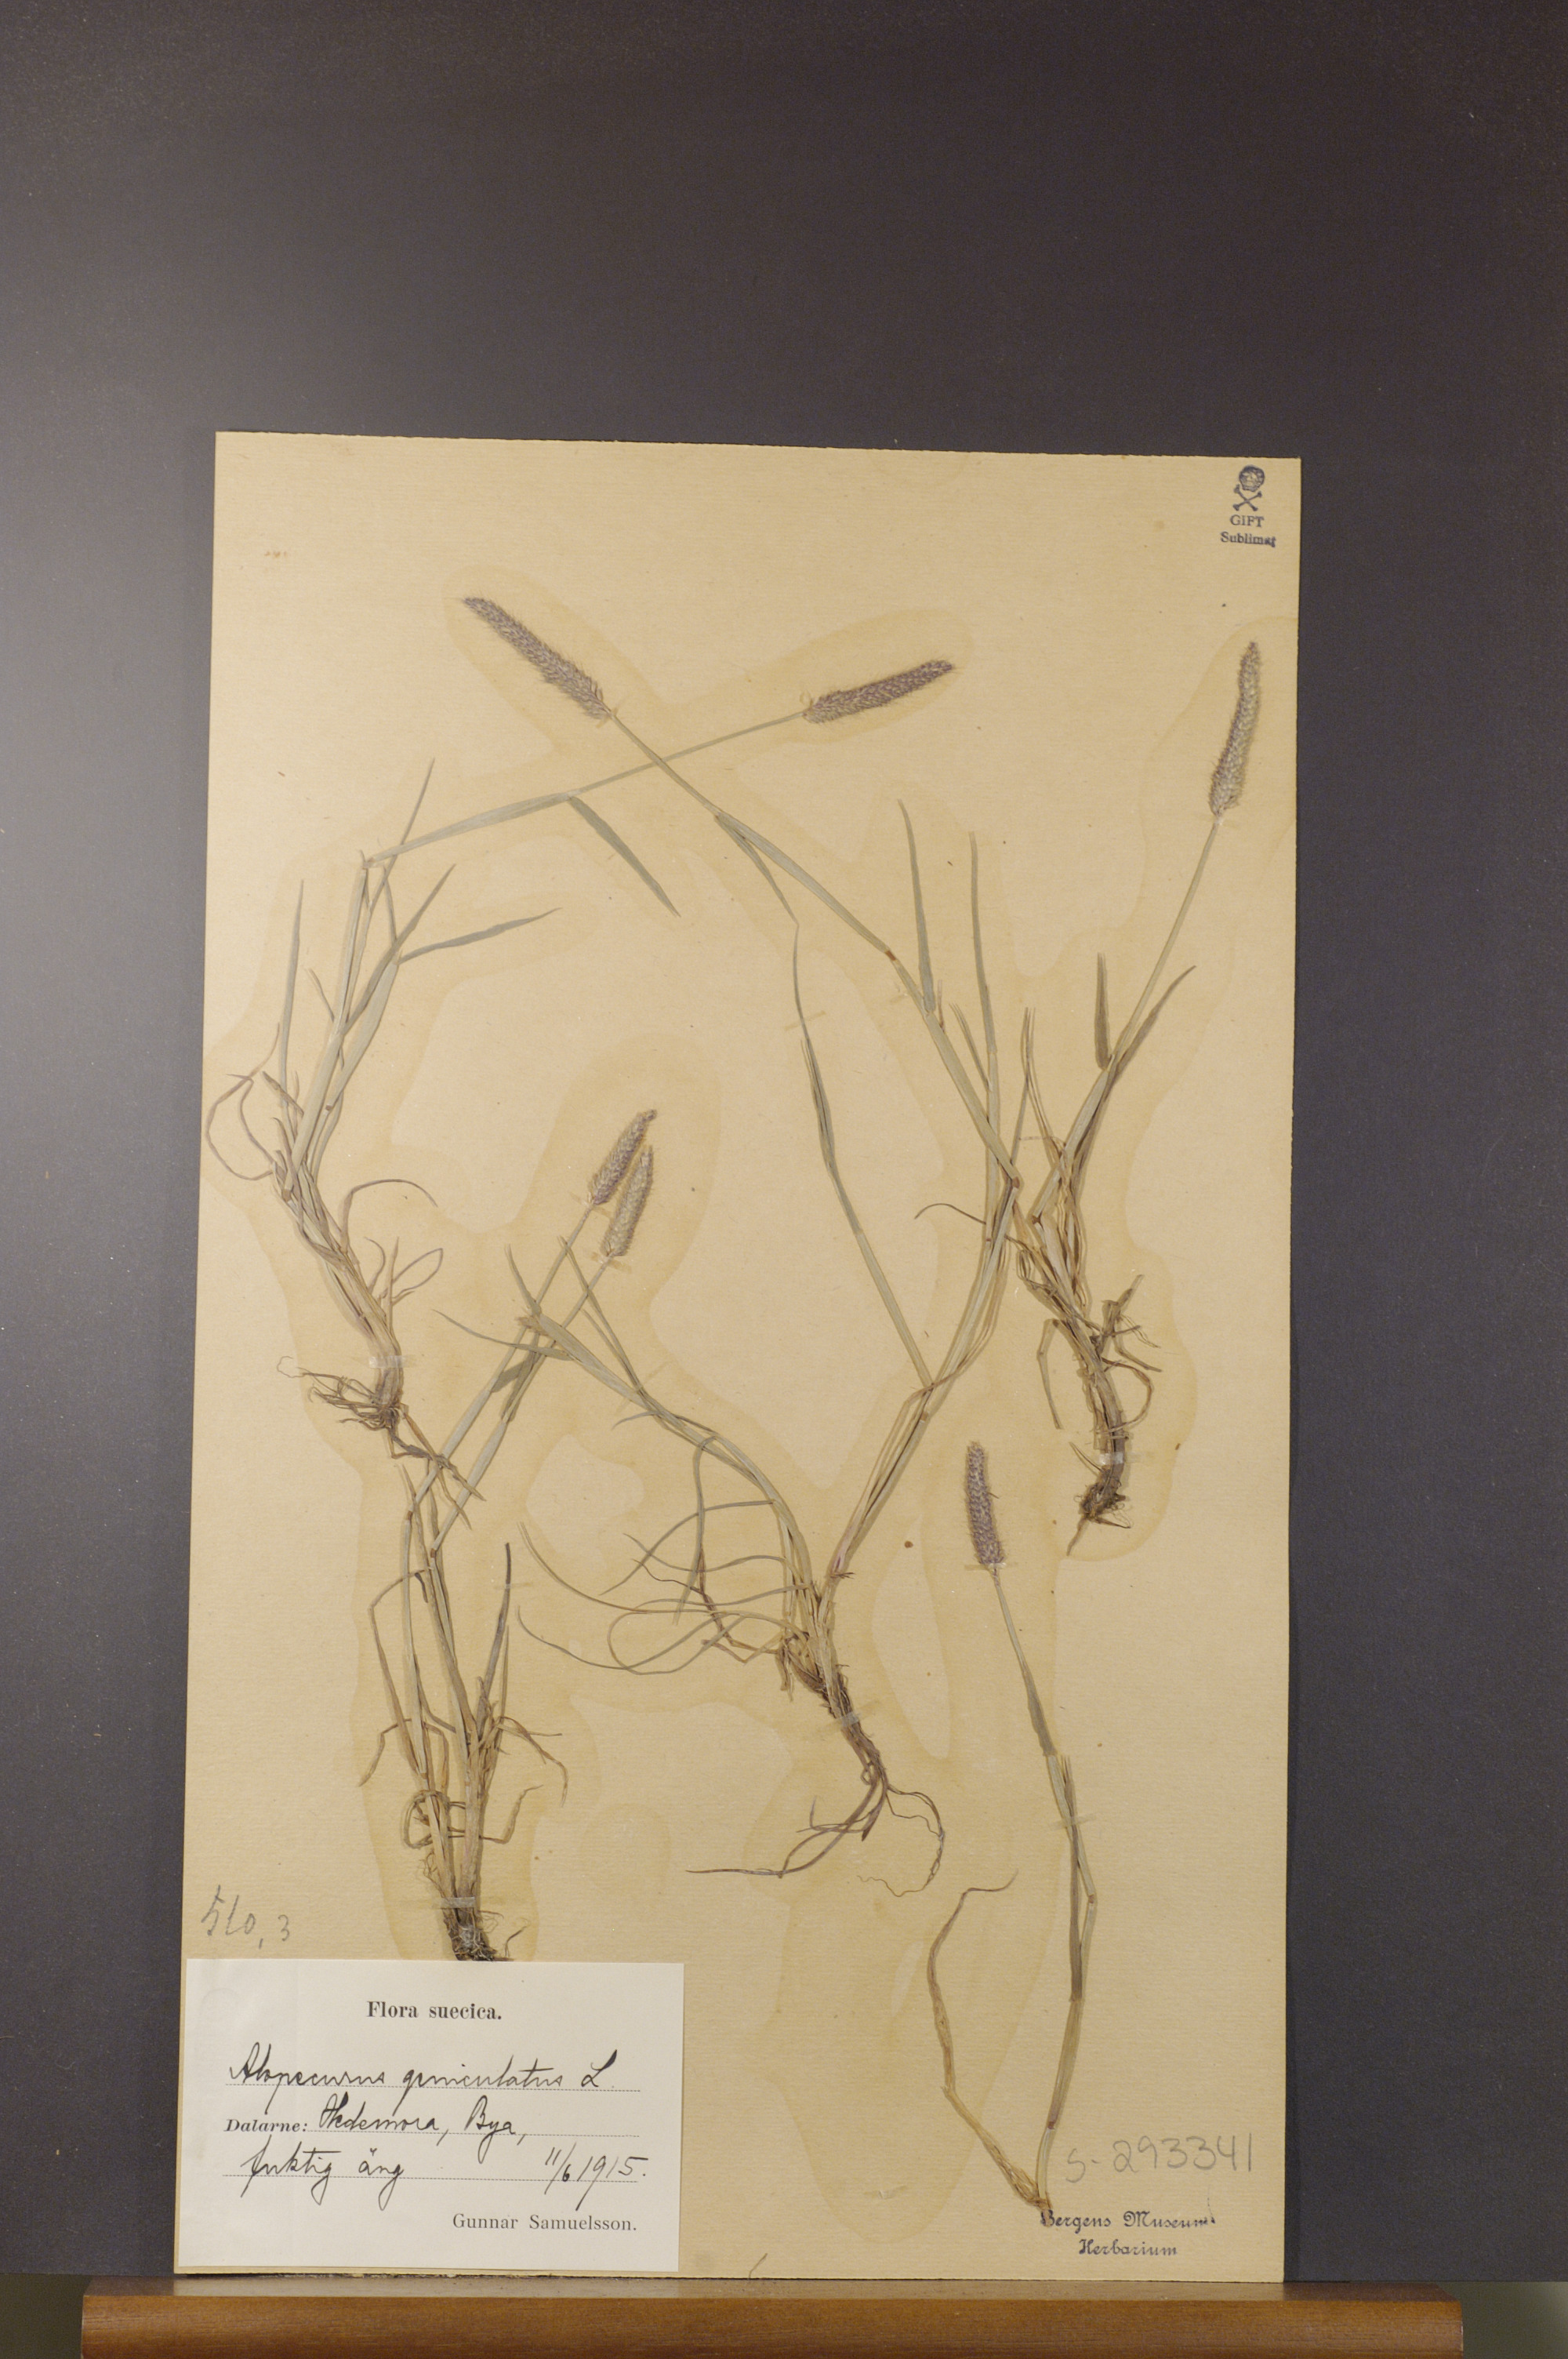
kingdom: Plantae
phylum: Tracheophyta
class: Liliopsida
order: Poales
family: Poaceae
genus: Alopecurus
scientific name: Alopecurus geniculatus
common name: Water foxtail
